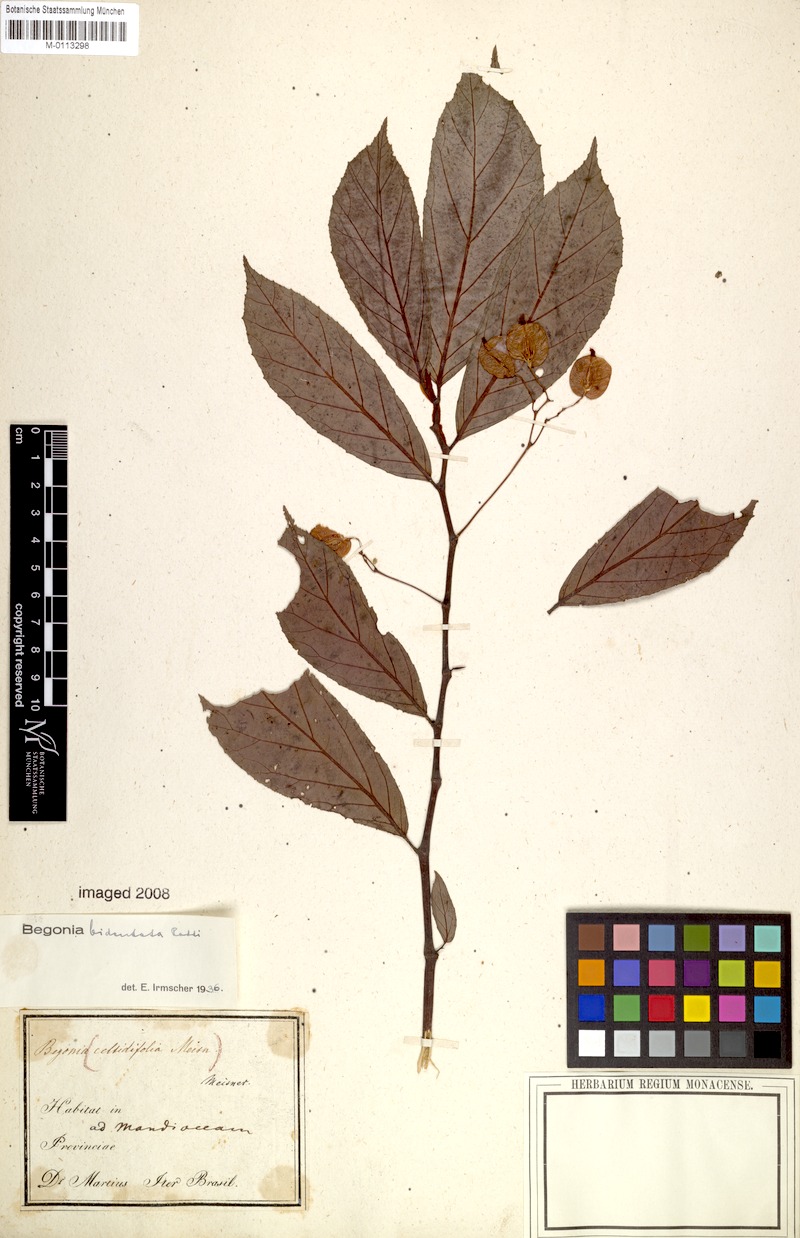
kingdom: Plantae
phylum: Tracheophyta
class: Magnoliopsida
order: Cucurbitales
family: Begoniaceae
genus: Begonia
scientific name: Begonia bidentata
